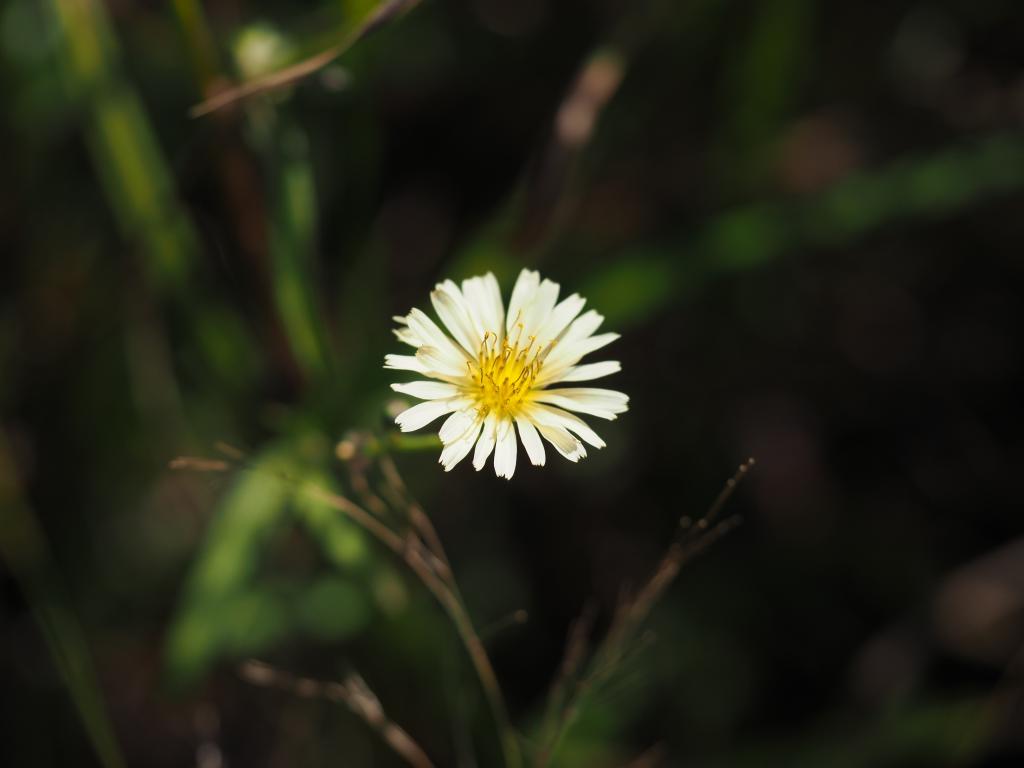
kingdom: Plantae
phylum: Tracheophyta
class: Magnoliopsida
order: Asterales
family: Asteraceae
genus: Lactuca
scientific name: Lactuca indica
